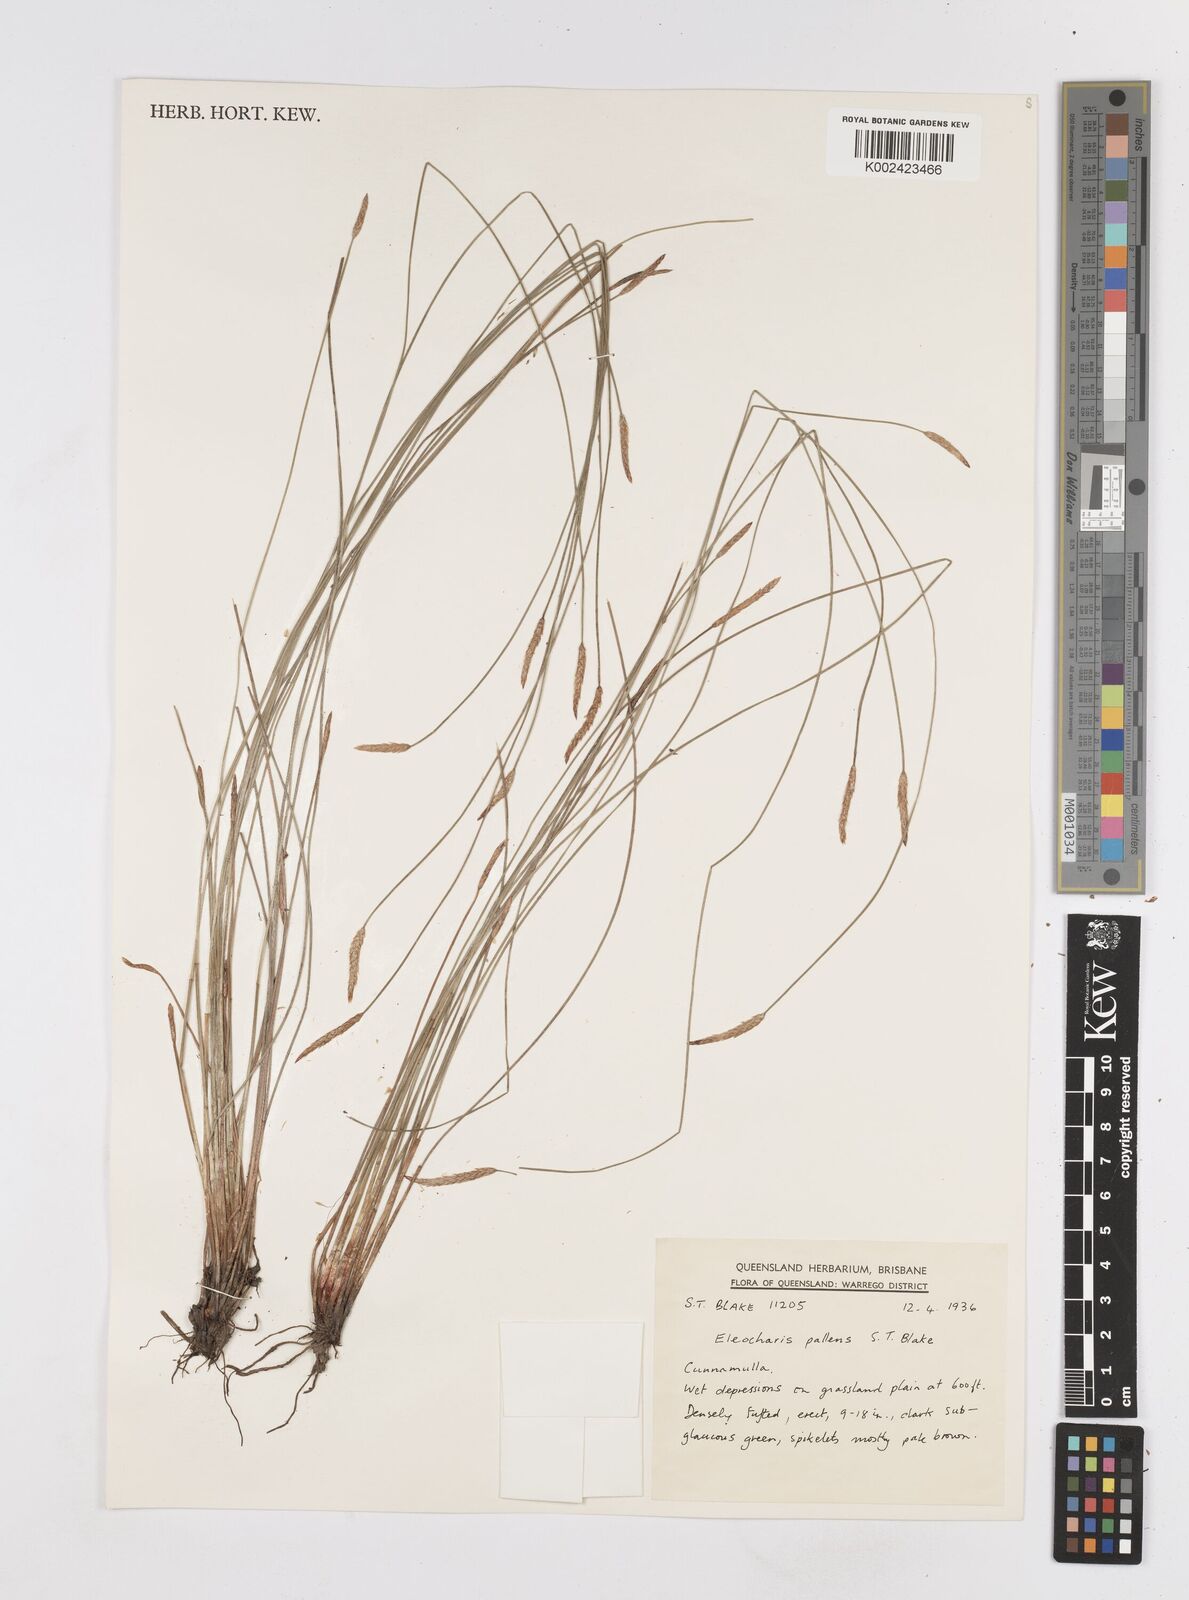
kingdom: Plantae
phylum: Tracheophyta
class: Liliopsida
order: Poales
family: Cyperaceae
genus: Eleocharis
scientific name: Eleocharis acuta
